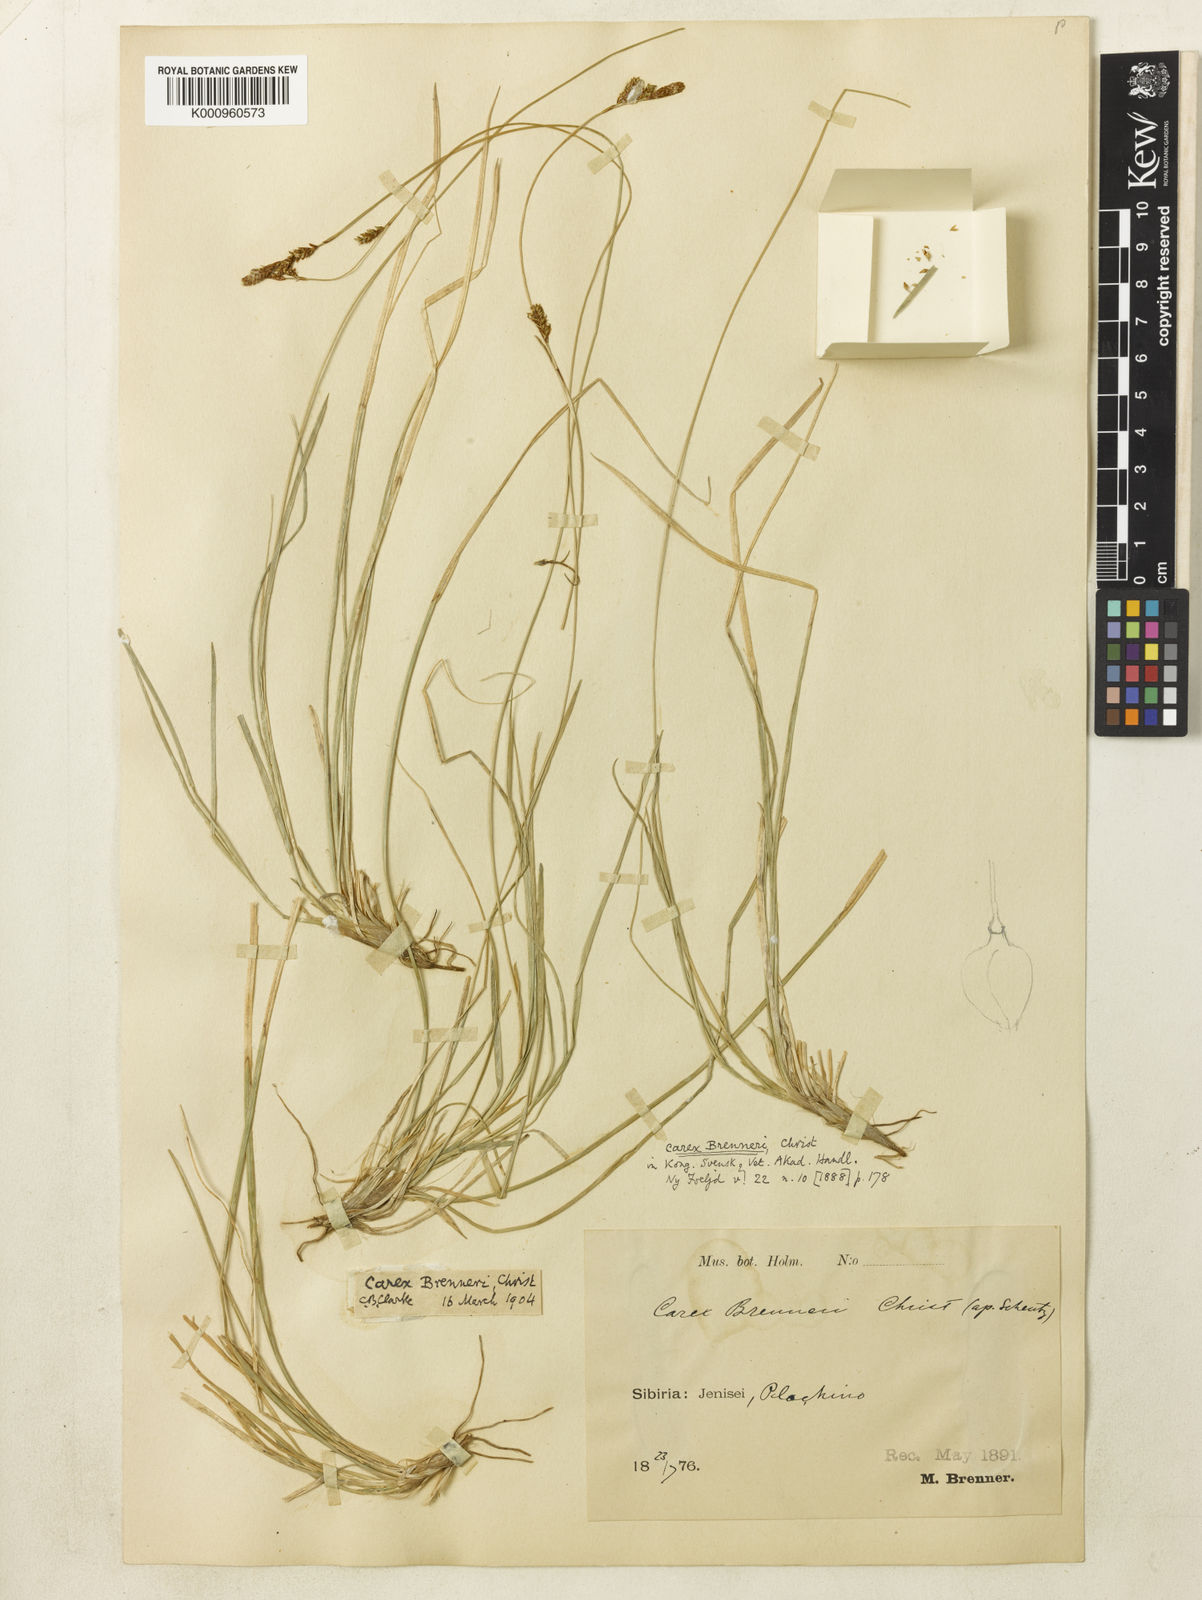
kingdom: Plantae
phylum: Tracheophyta
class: Liliopsida
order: Poales
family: Cyperaceae
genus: Carex
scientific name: Carex umbrosa
